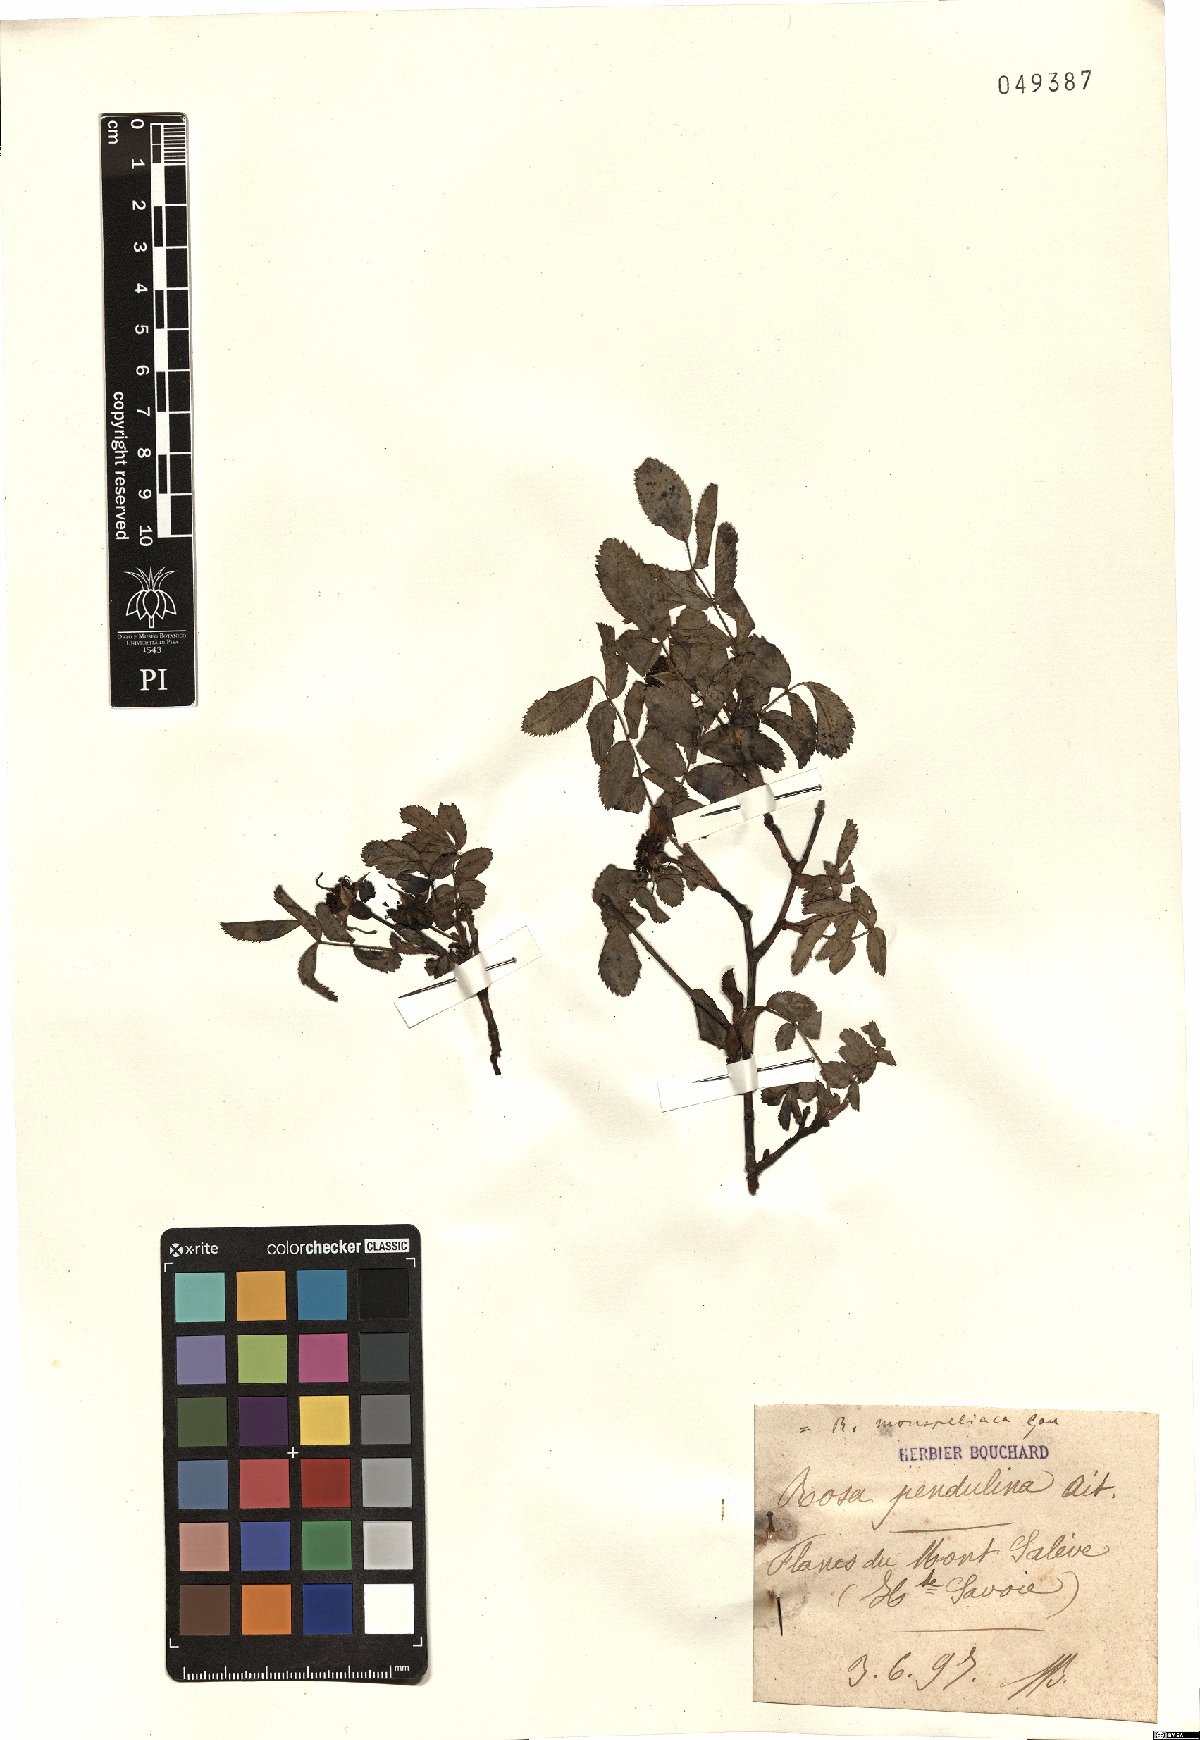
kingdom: Plantae
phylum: Tracheophyta
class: Magnoliopsida
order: Rosales
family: Rosaceae
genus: Rosa
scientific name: Rosa pendulina
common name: Alpine rose
